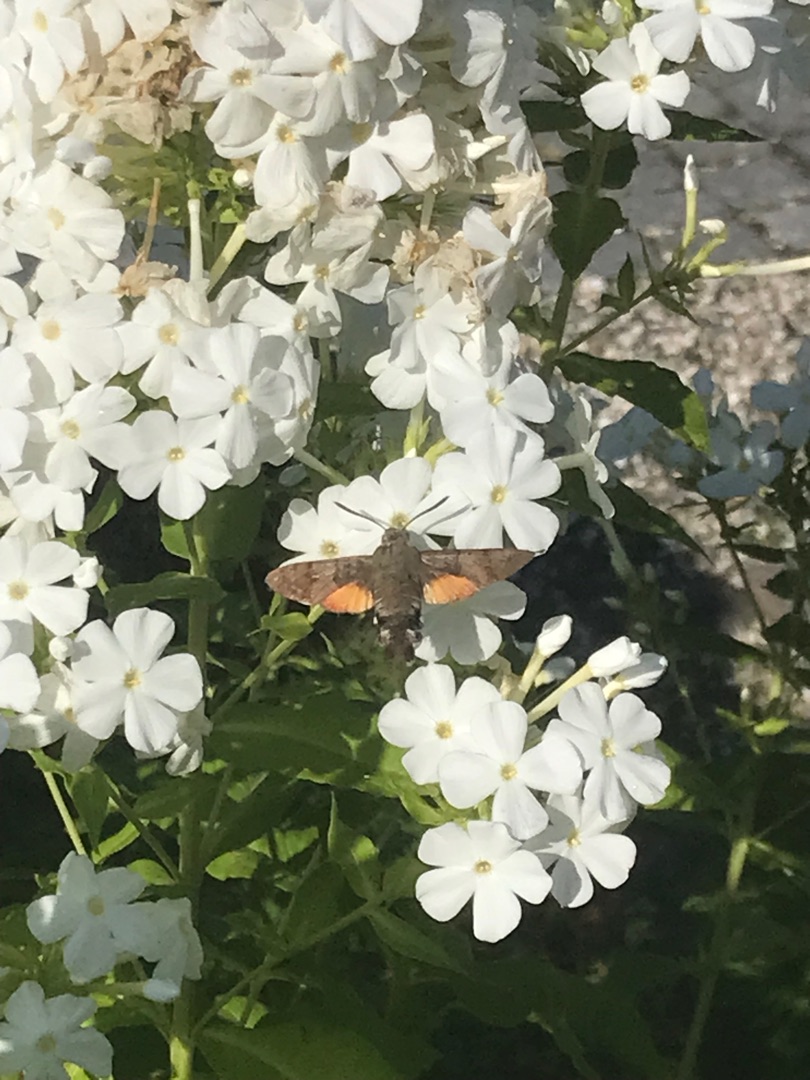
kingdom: Animalia
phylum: Arthropoda
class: Insecta
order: Lepidoptera
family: Sphingidae
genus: Macroglossum
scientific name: Macroglossum stellatarum
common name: Duehale
